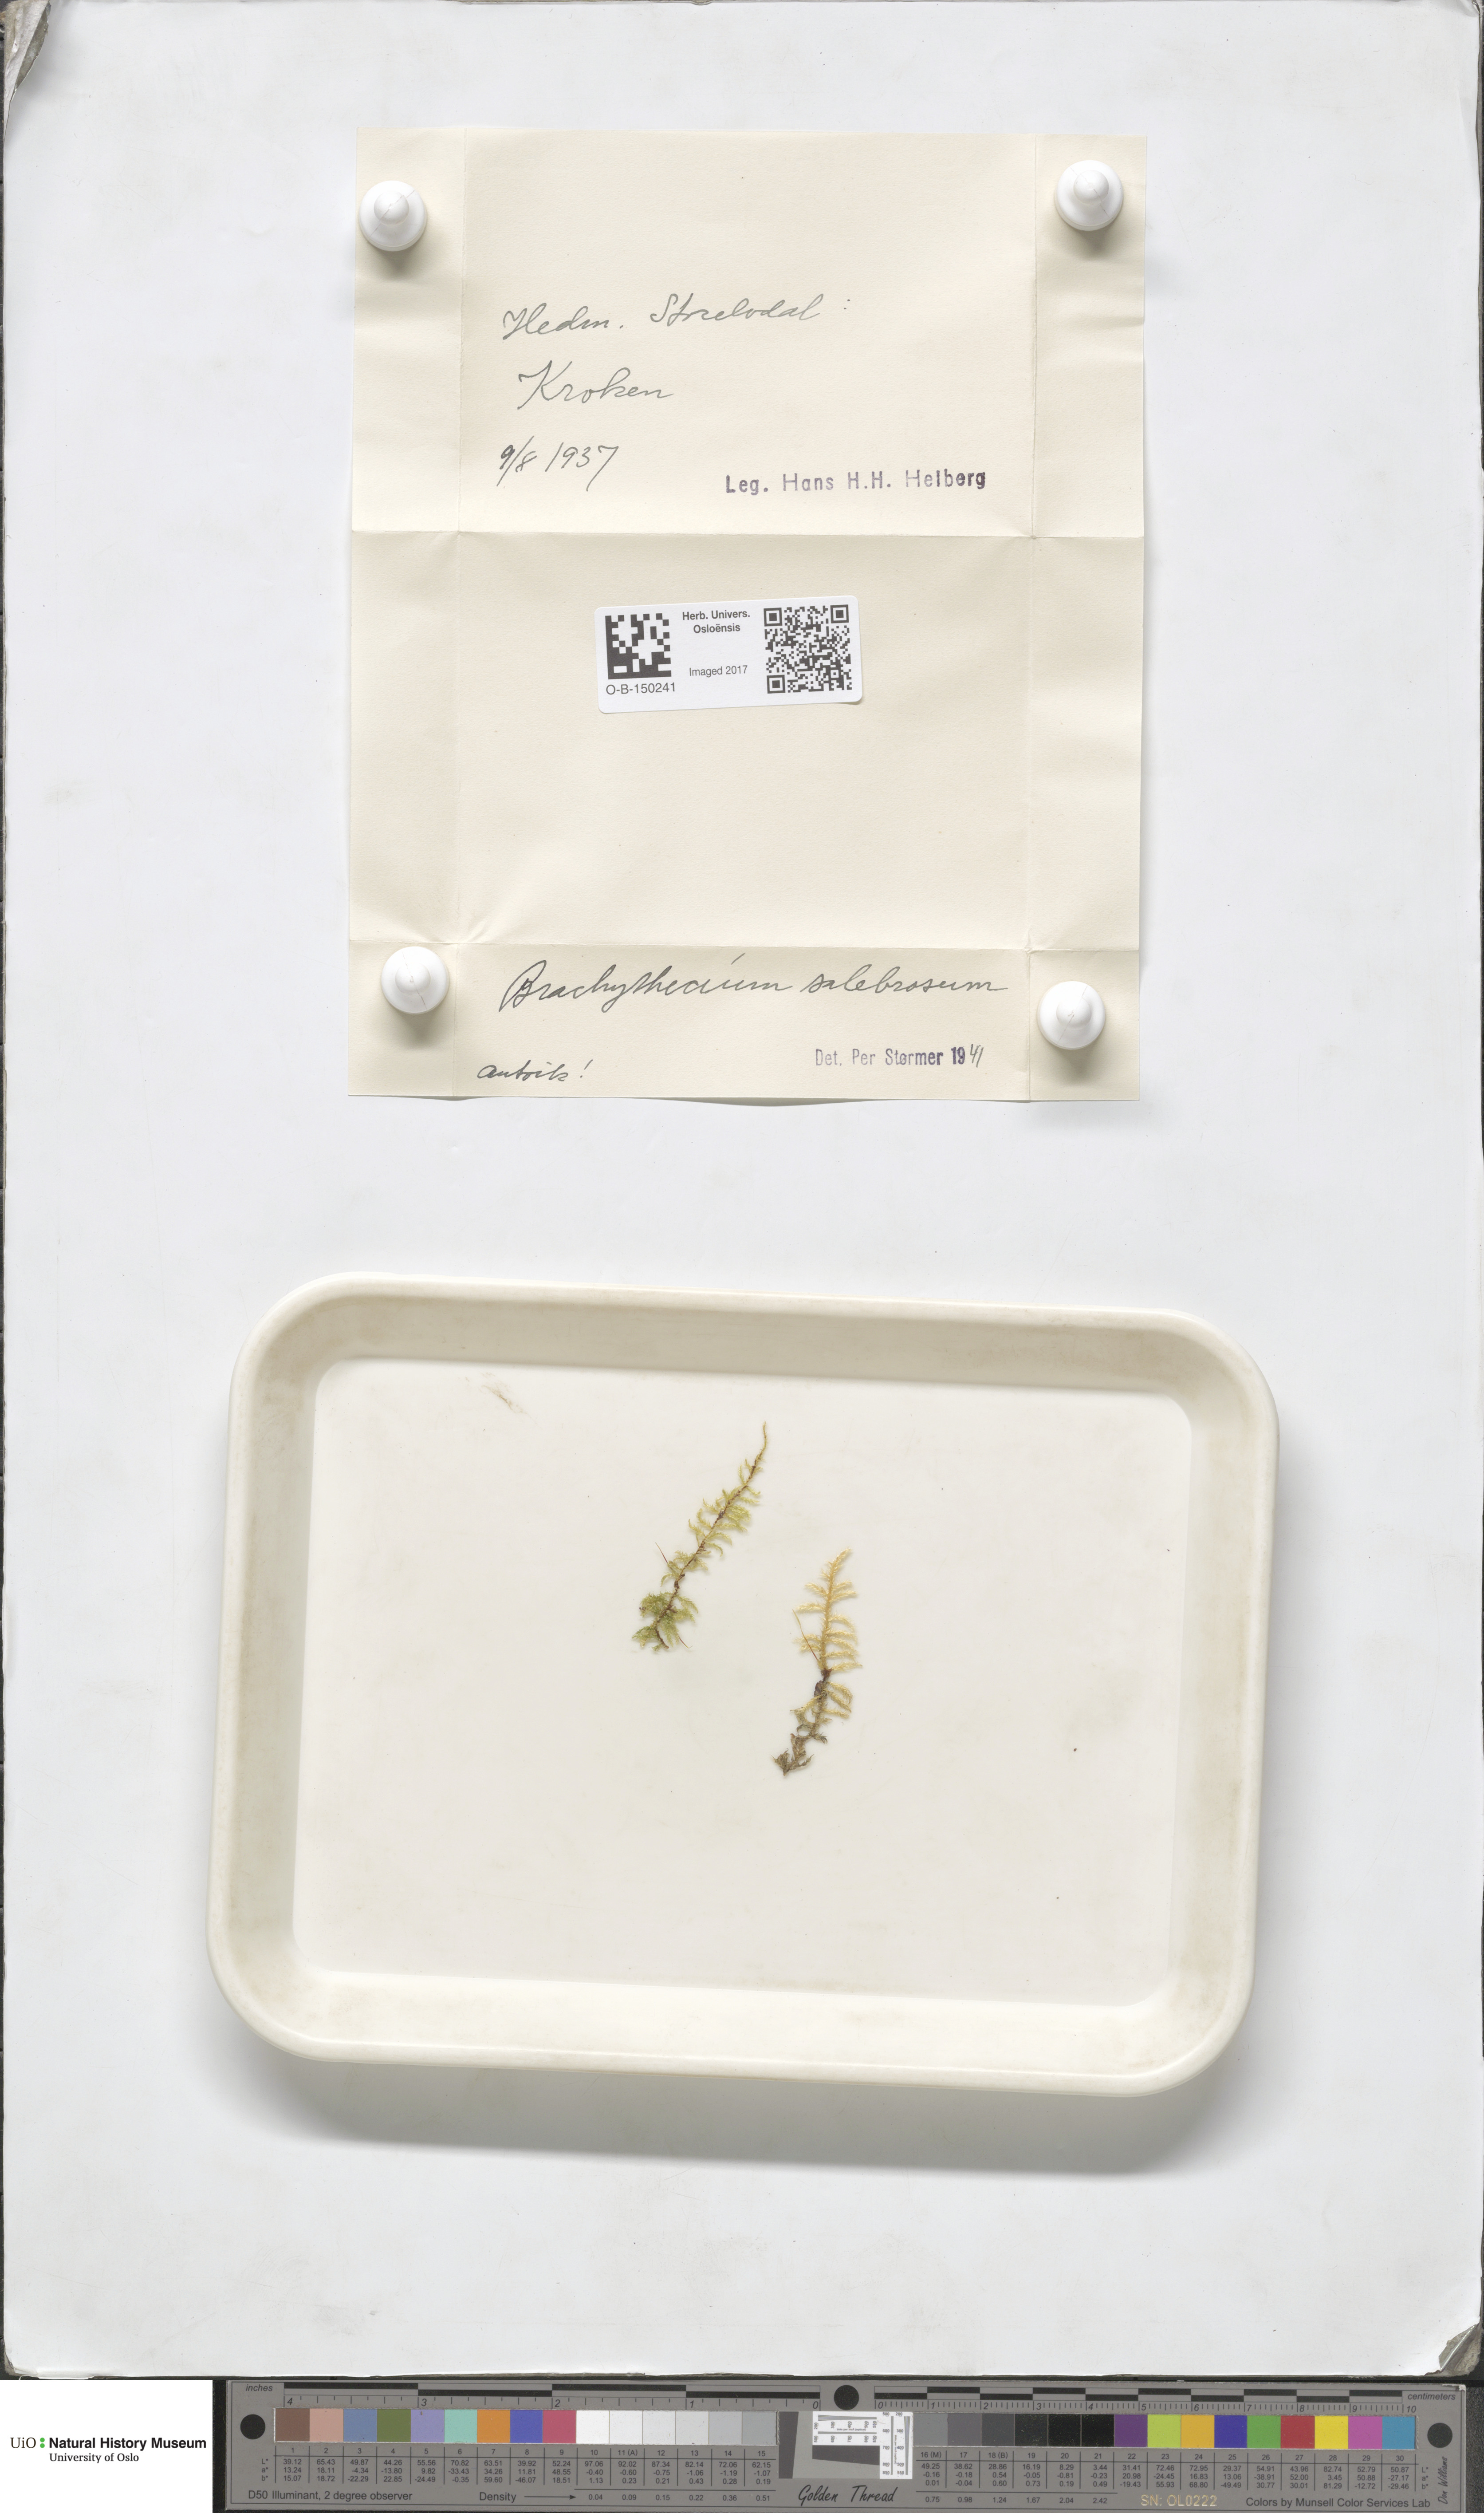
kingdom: Plantae
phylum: Bryophyta
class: Bryopsida
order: Hypnales
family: Brachytheciaceae
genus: Brachythecium
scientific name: Brachythecium salebrosum
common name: Smooth-stalk feather-moss
